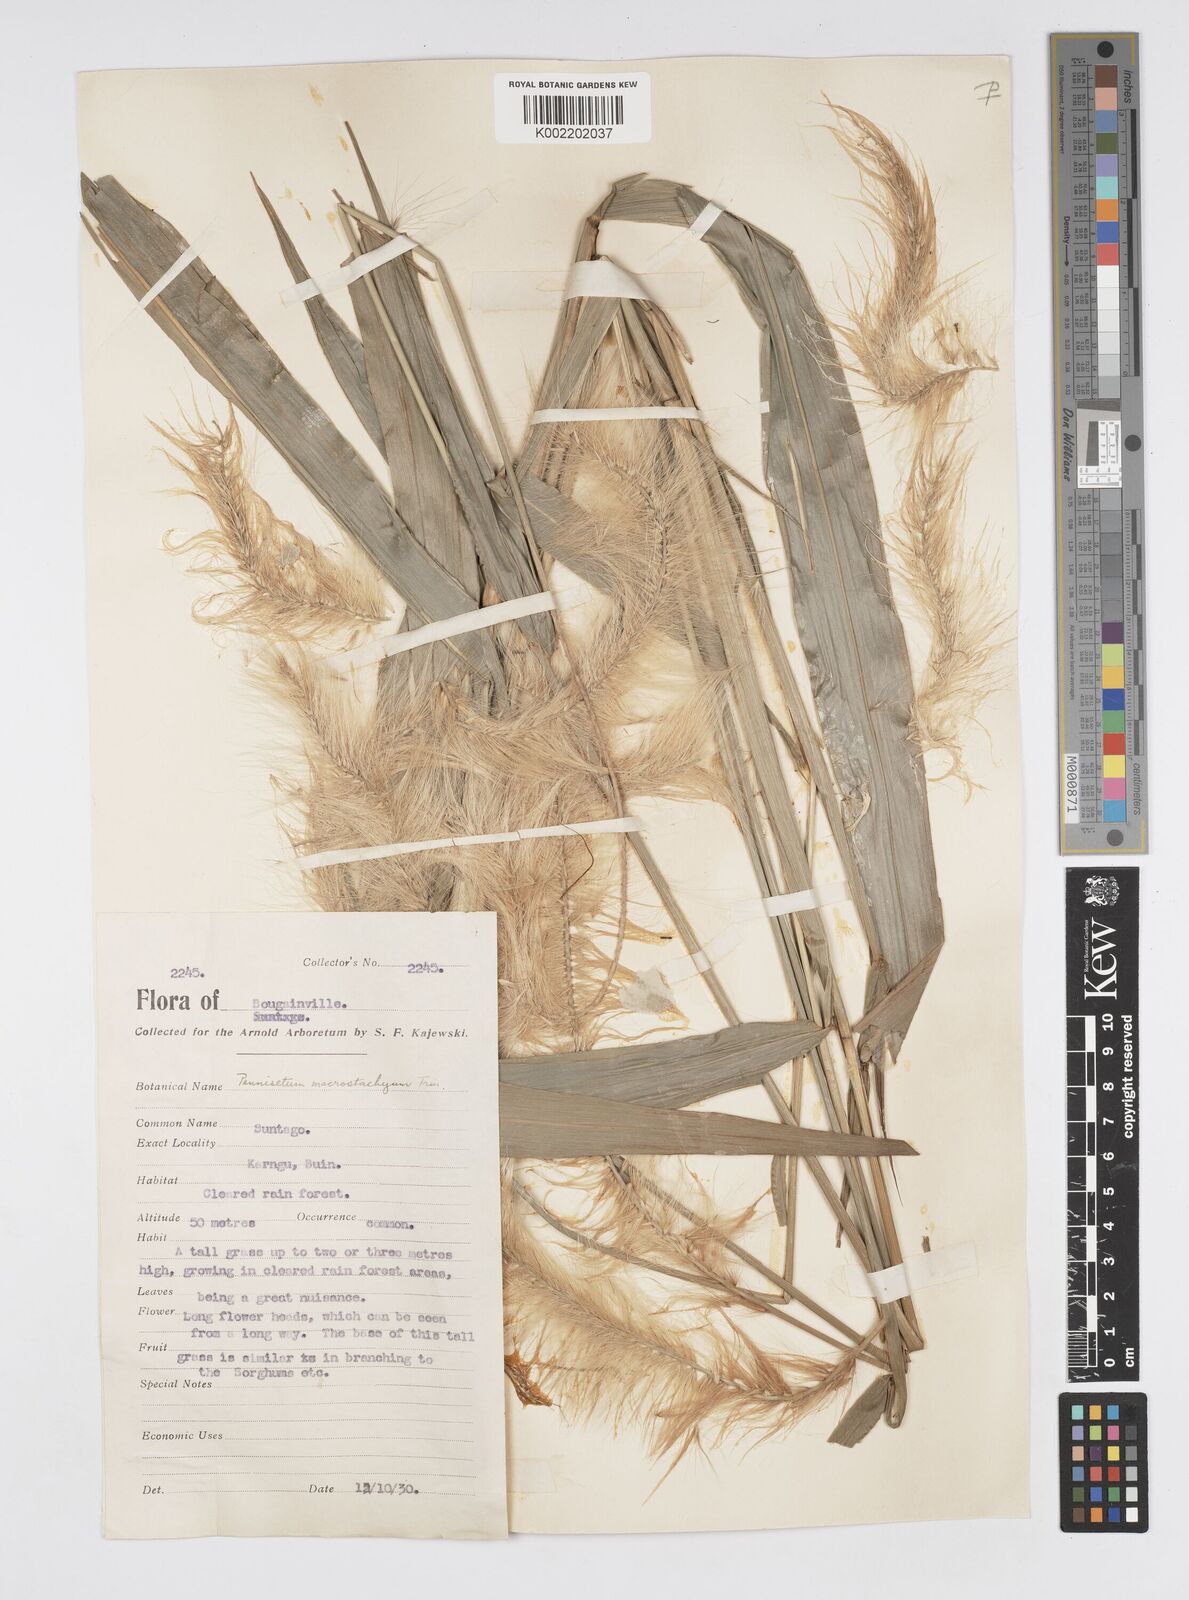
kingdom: Plantae
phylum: Tracheophyta
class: Liliopsida
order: Poales
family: Poaceae
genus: Cenchrus
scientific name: Cenchrus purpureus
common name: Elephant grass
